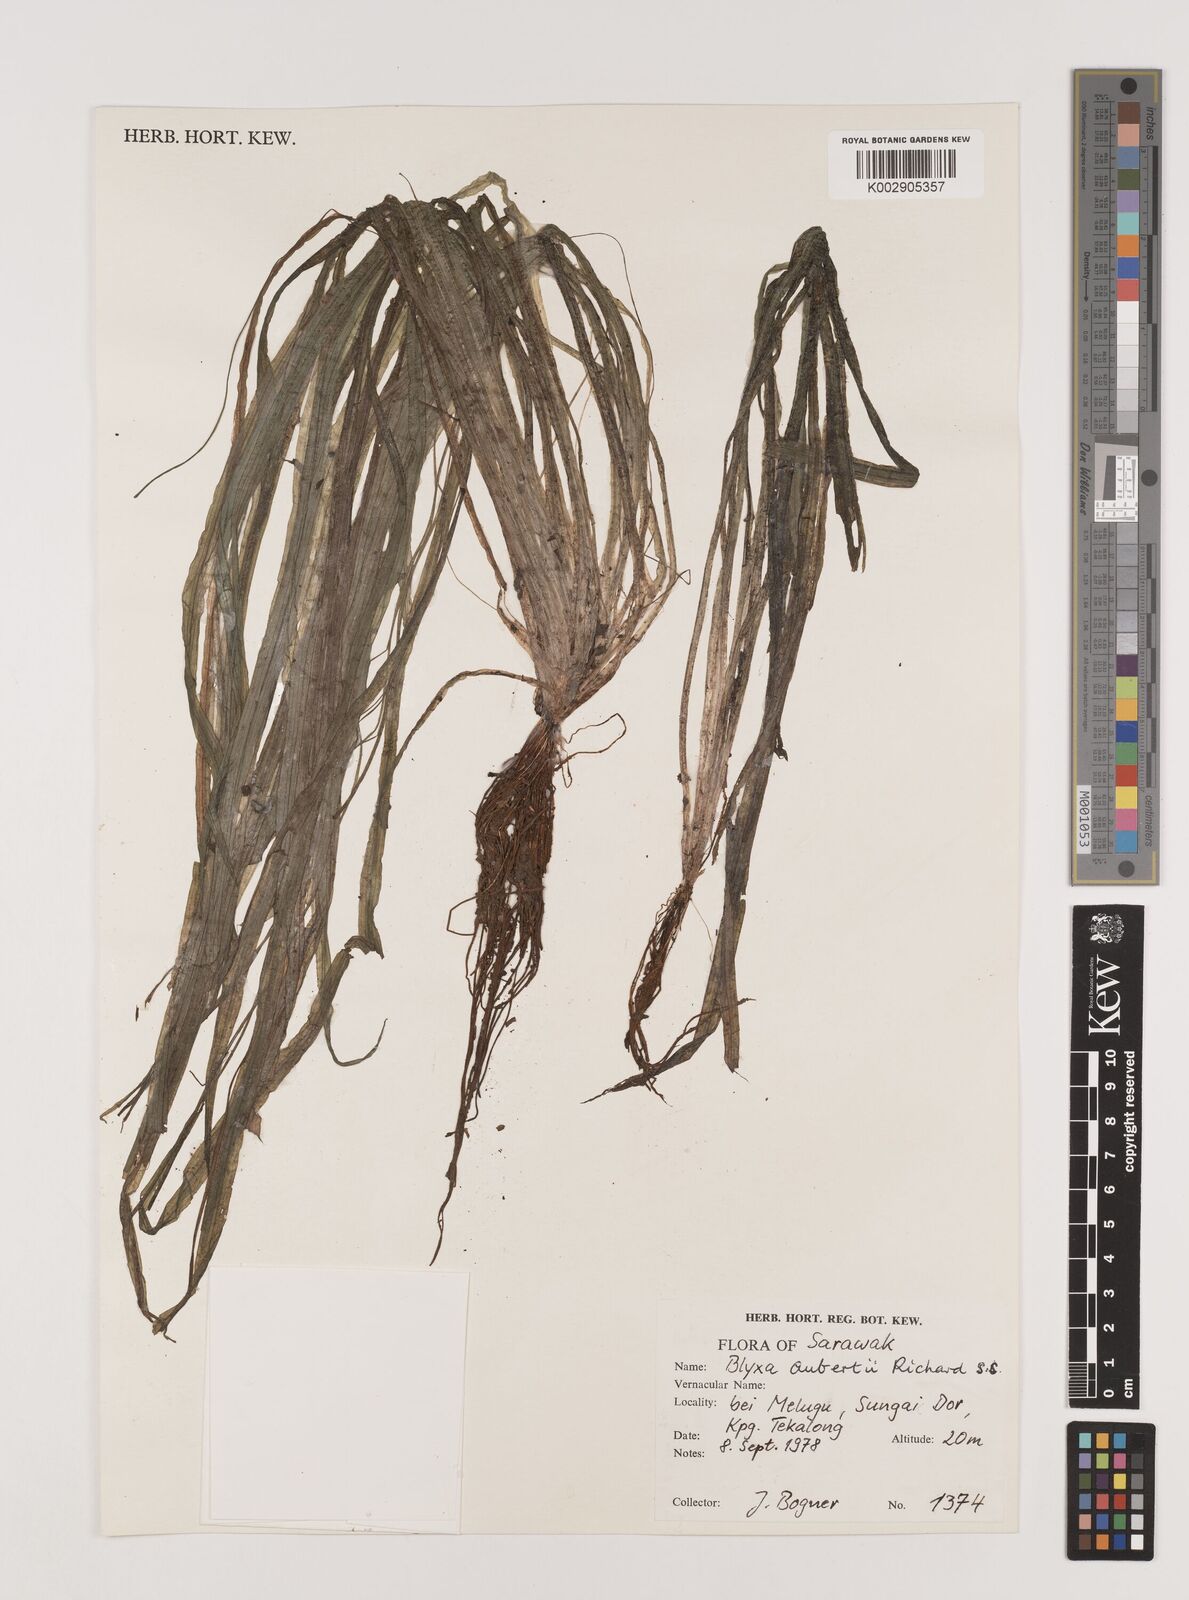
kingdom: Plantae
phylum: Tracheophyta
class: Liliopsida
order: Alismatales
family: Hydrocharitaceae
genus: Blyxa
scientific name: Blyxa japonica
